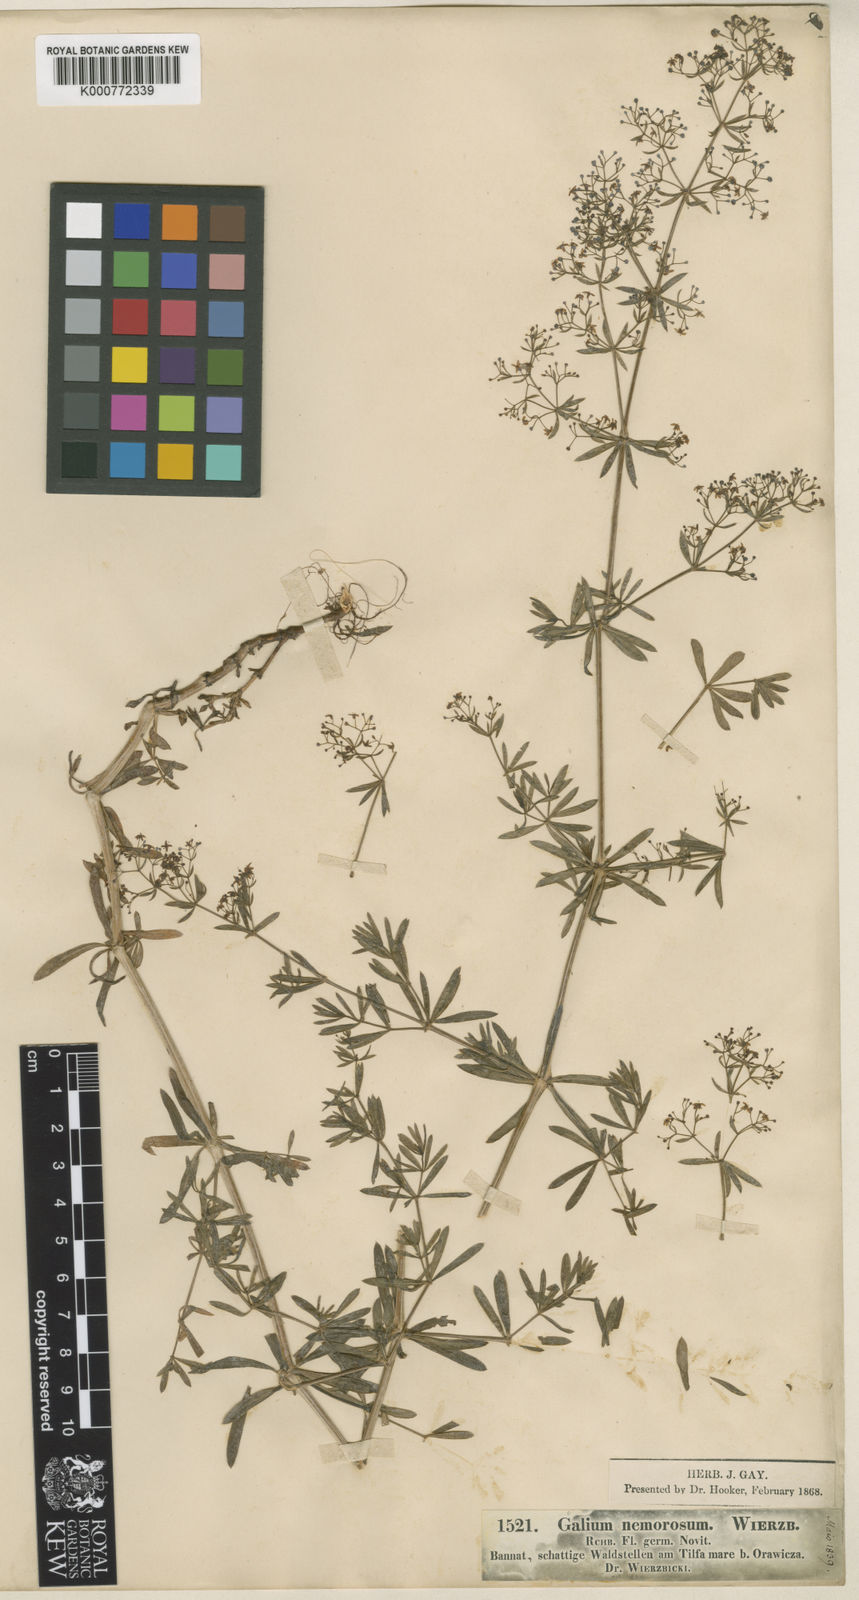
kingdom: Plantae
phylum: Tracheophyta
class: Magnoliopsida
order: Gentianales
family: Rubiaceae
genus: Galium
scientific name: Galium mollugo
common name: Hedge bedstraw
